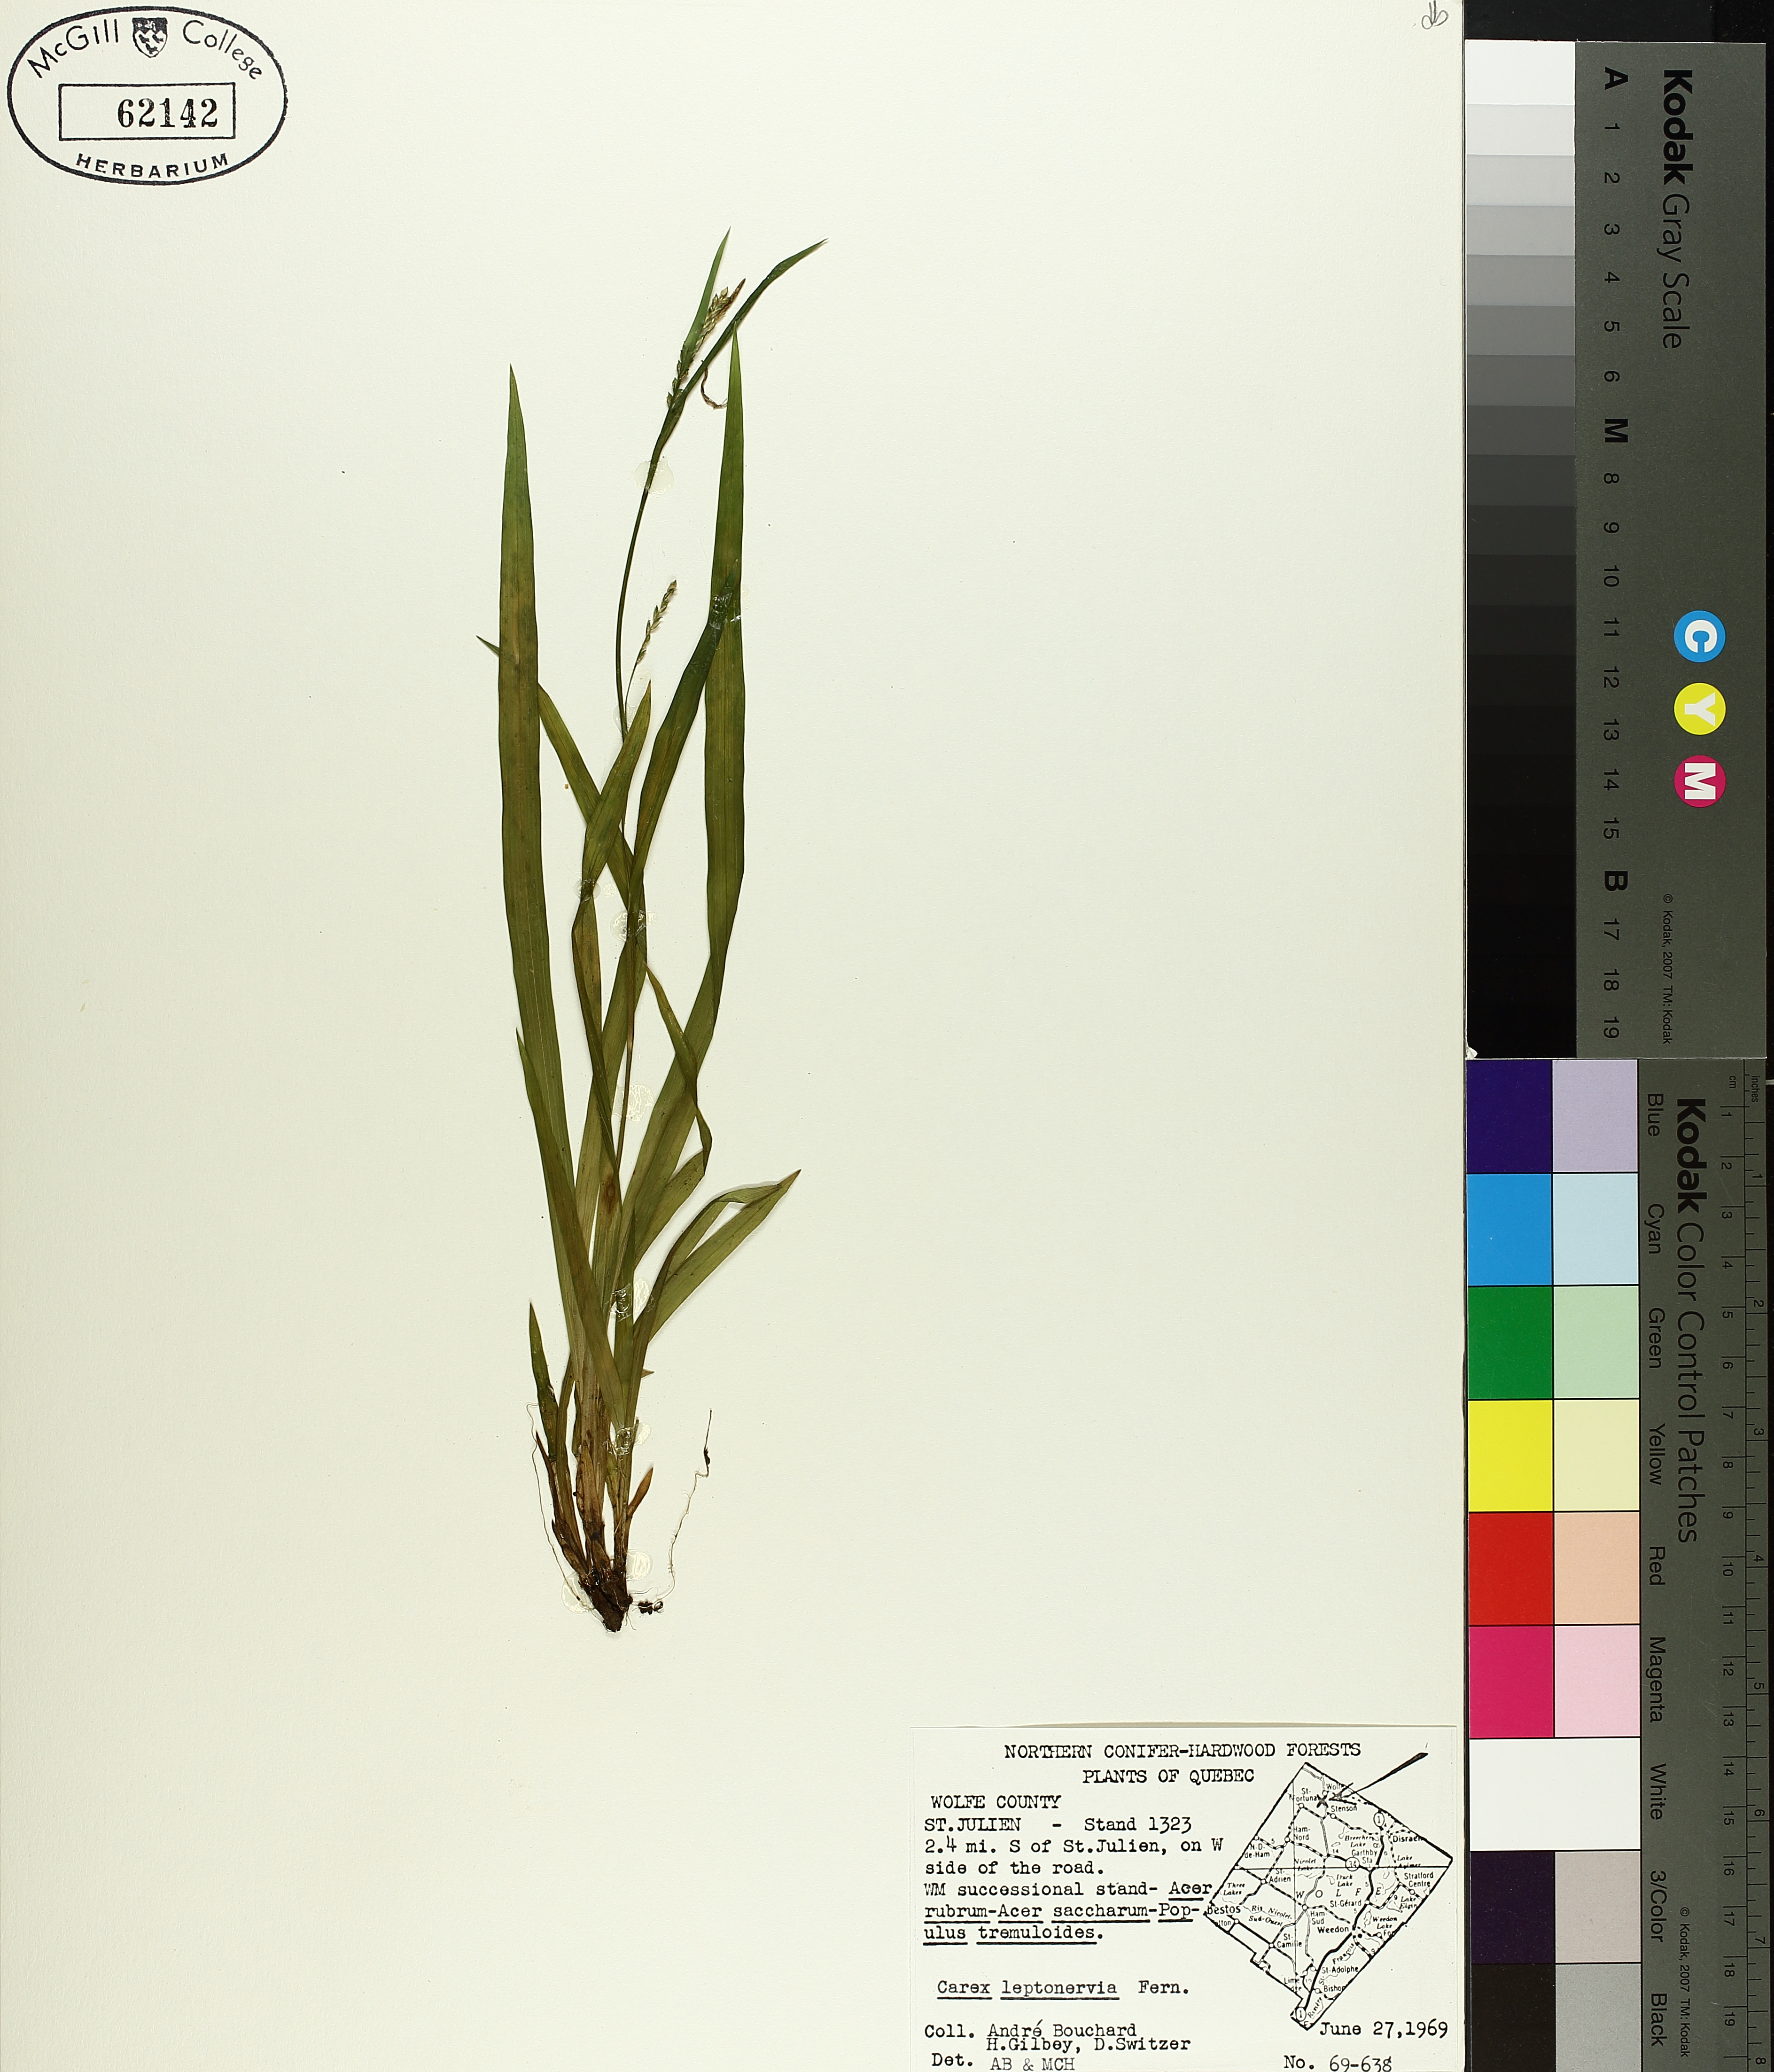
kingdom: Plantae
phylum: Tracheophyta
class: Liliopsida
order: Poales
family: Cyperaceae
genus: Carex
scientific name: Carex leptonervia
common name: Few-nerved wood sedge
